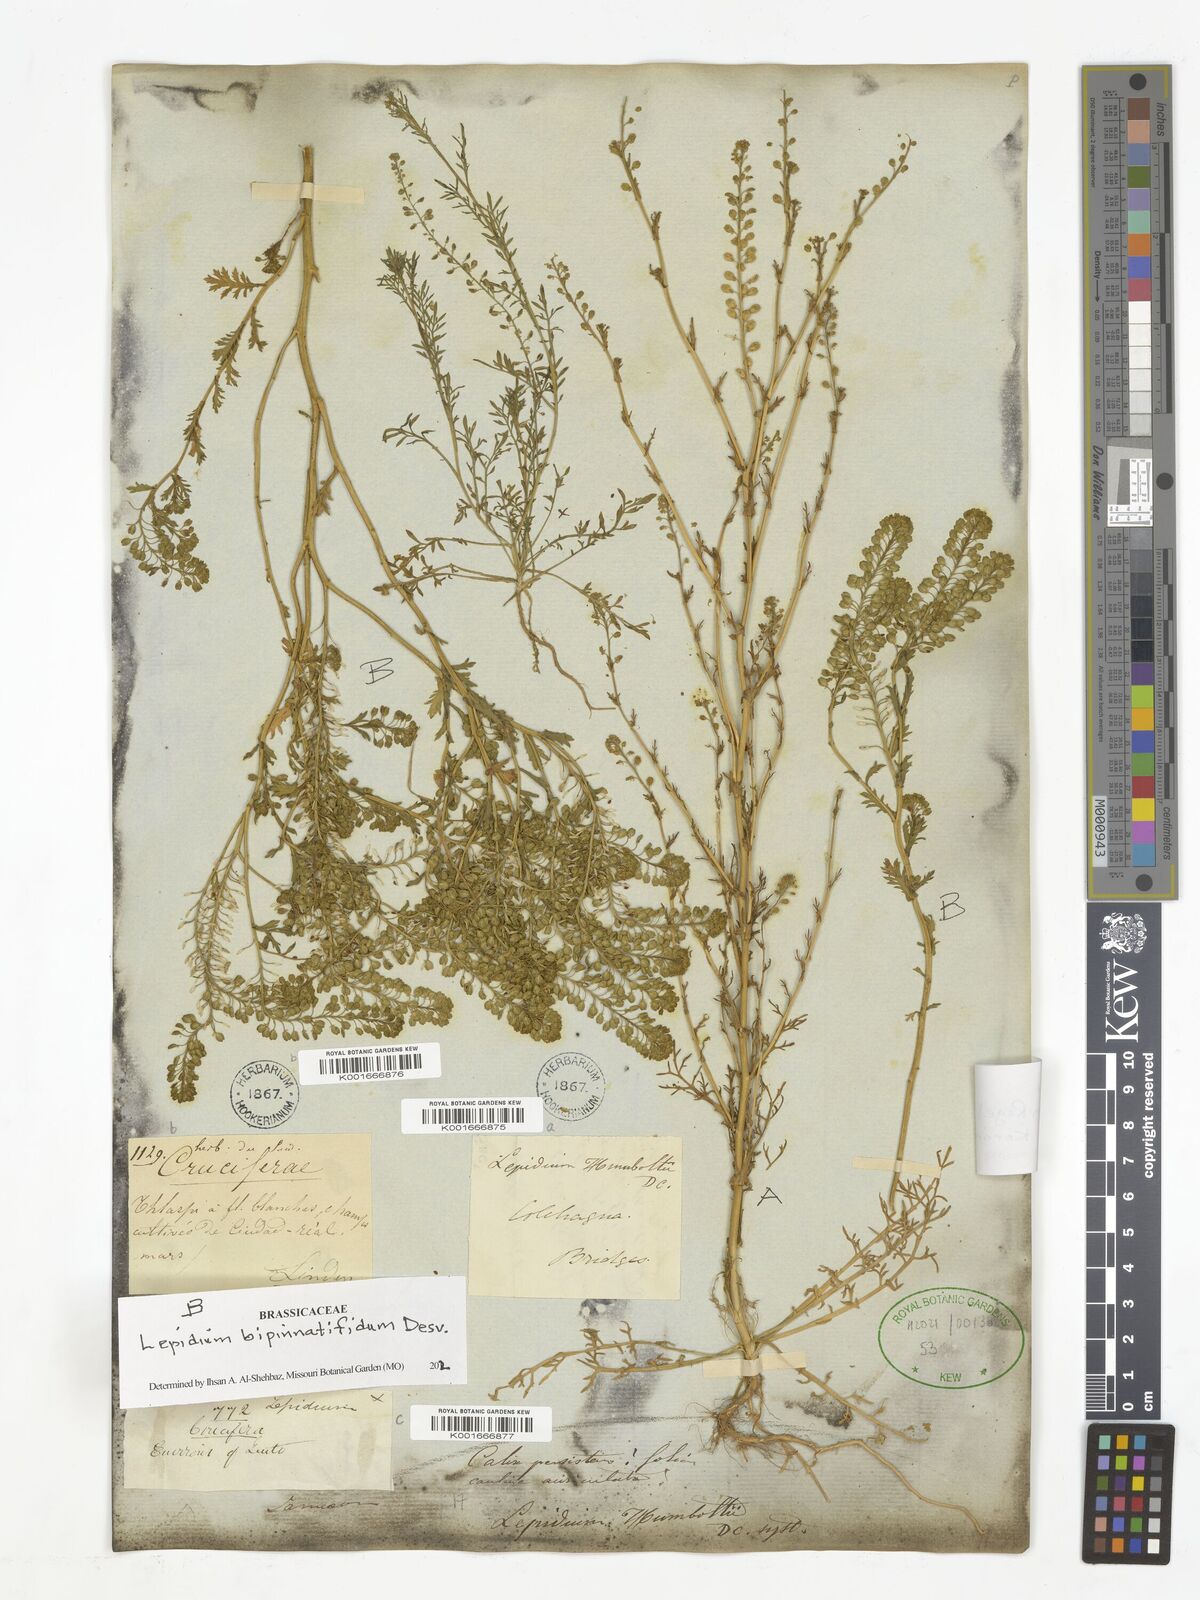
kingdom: Plantae
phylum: Tracheophyta
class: Magnoliopsida
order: Brassicales
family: Brassicaceae
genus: Lepidium
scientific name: Lepidium bipinnatifidum
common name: Wayside pepperwort
